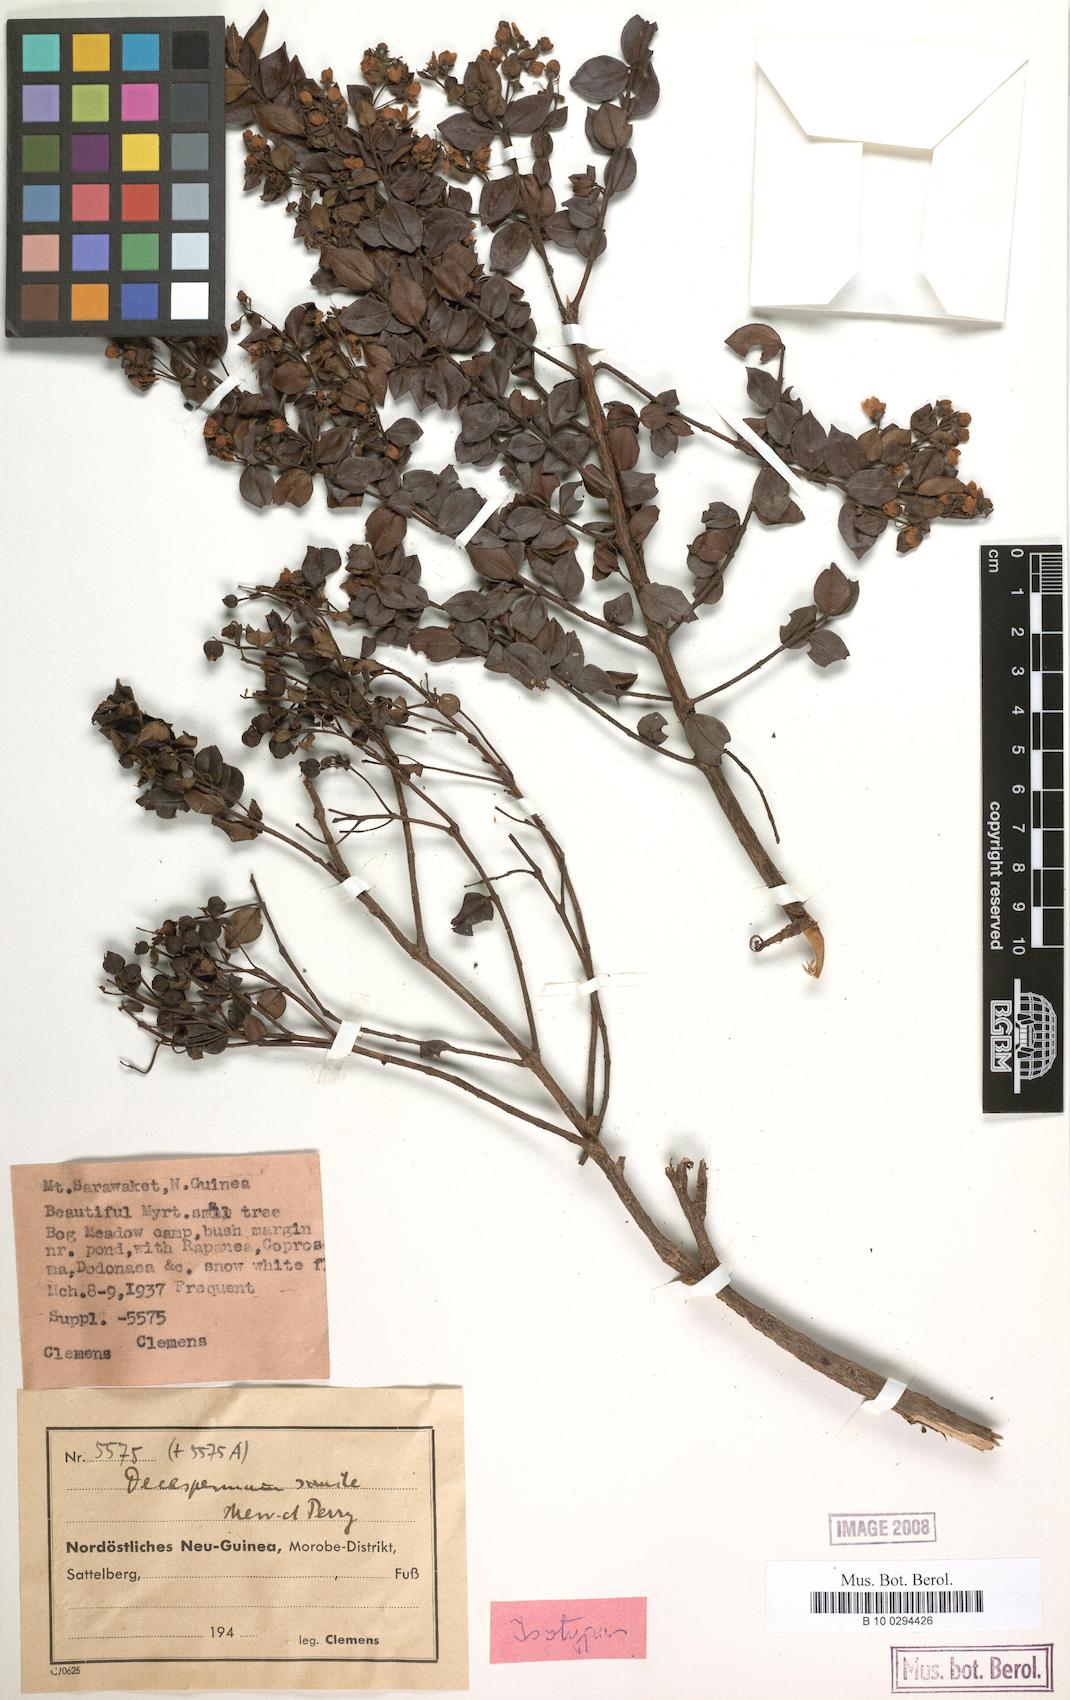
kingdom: Plantae
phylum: Tracheophyta
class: Magnoliopsida
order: Myrtales
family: Myrtaceae
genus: Decaspermum
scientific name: Decaspermum forbesii
